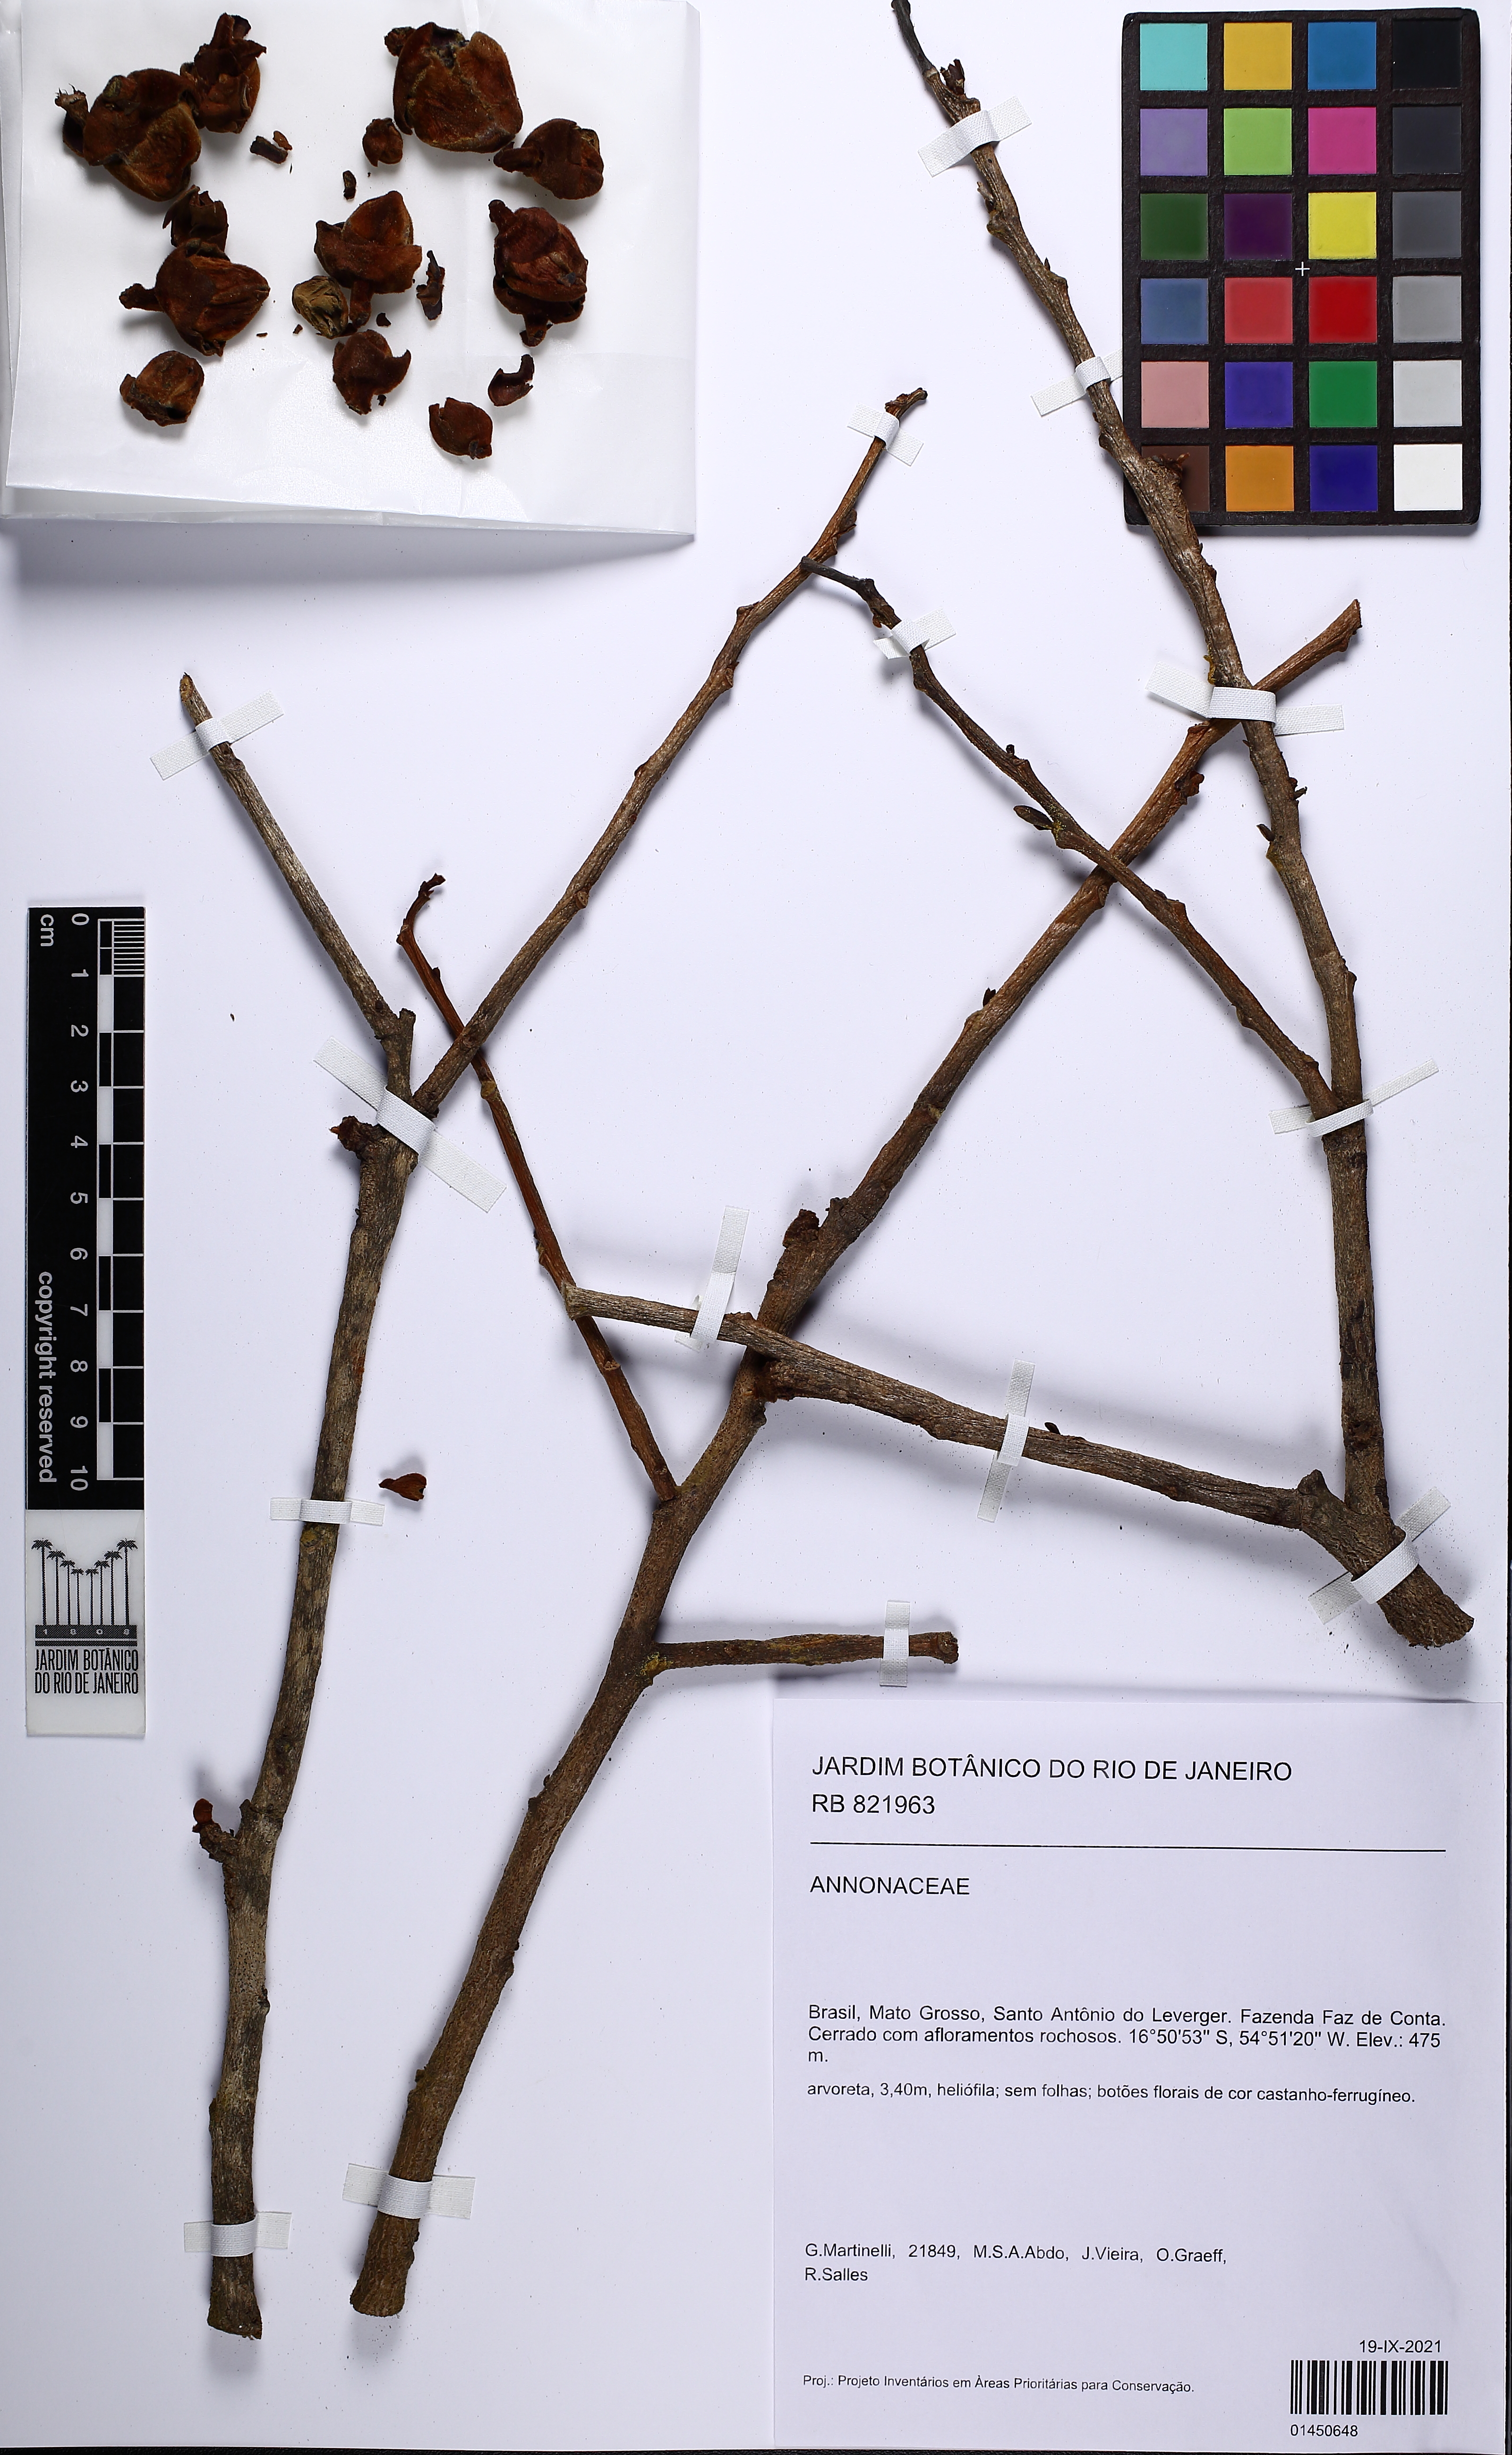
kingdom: Plantae
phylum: Tracheophyta
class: Magnoliopsida
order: Magnoliales
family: Annonaceae
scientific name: Annonaceae
